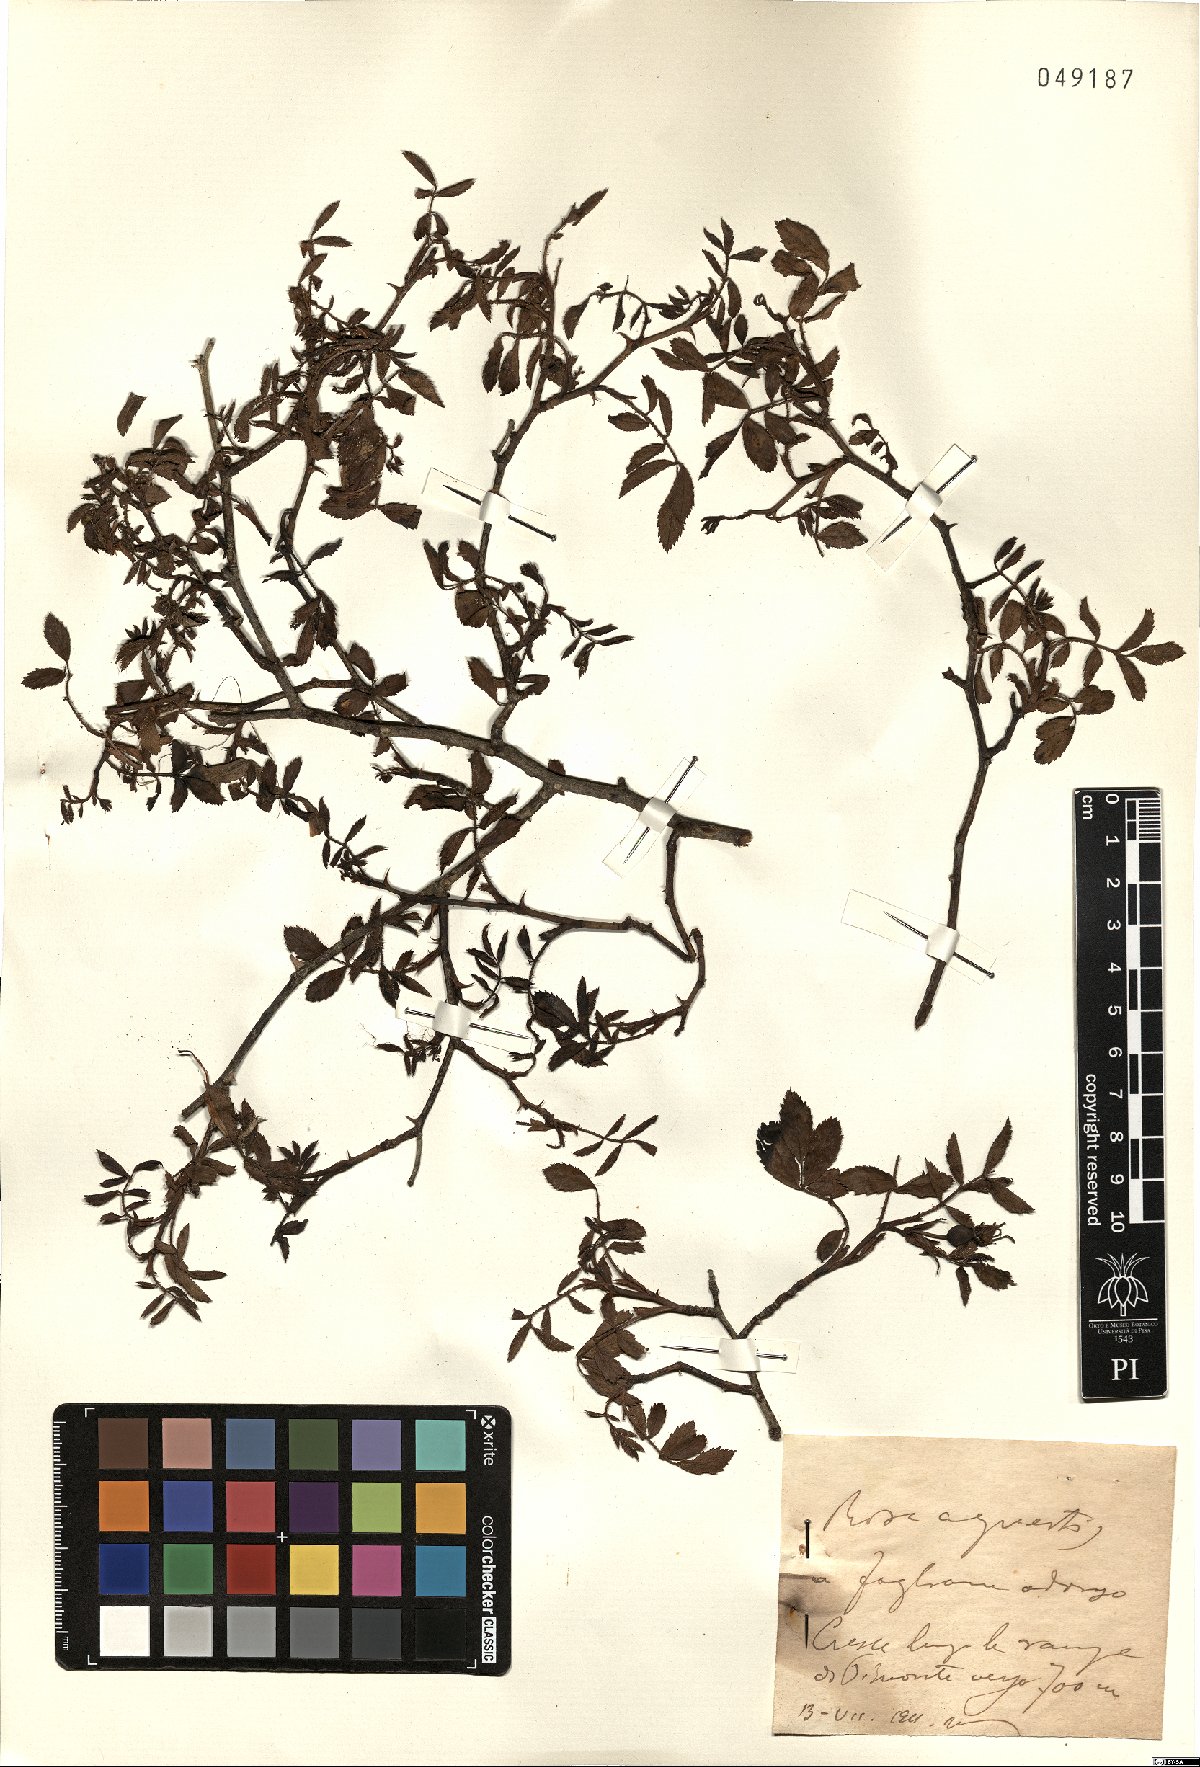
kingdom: Plantae
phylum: Tracheophyta
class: Magnoliopsida
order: Rosales
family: Rosaceae
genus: Rosa
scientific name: Rosa agrestis
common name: Fieldbriar
